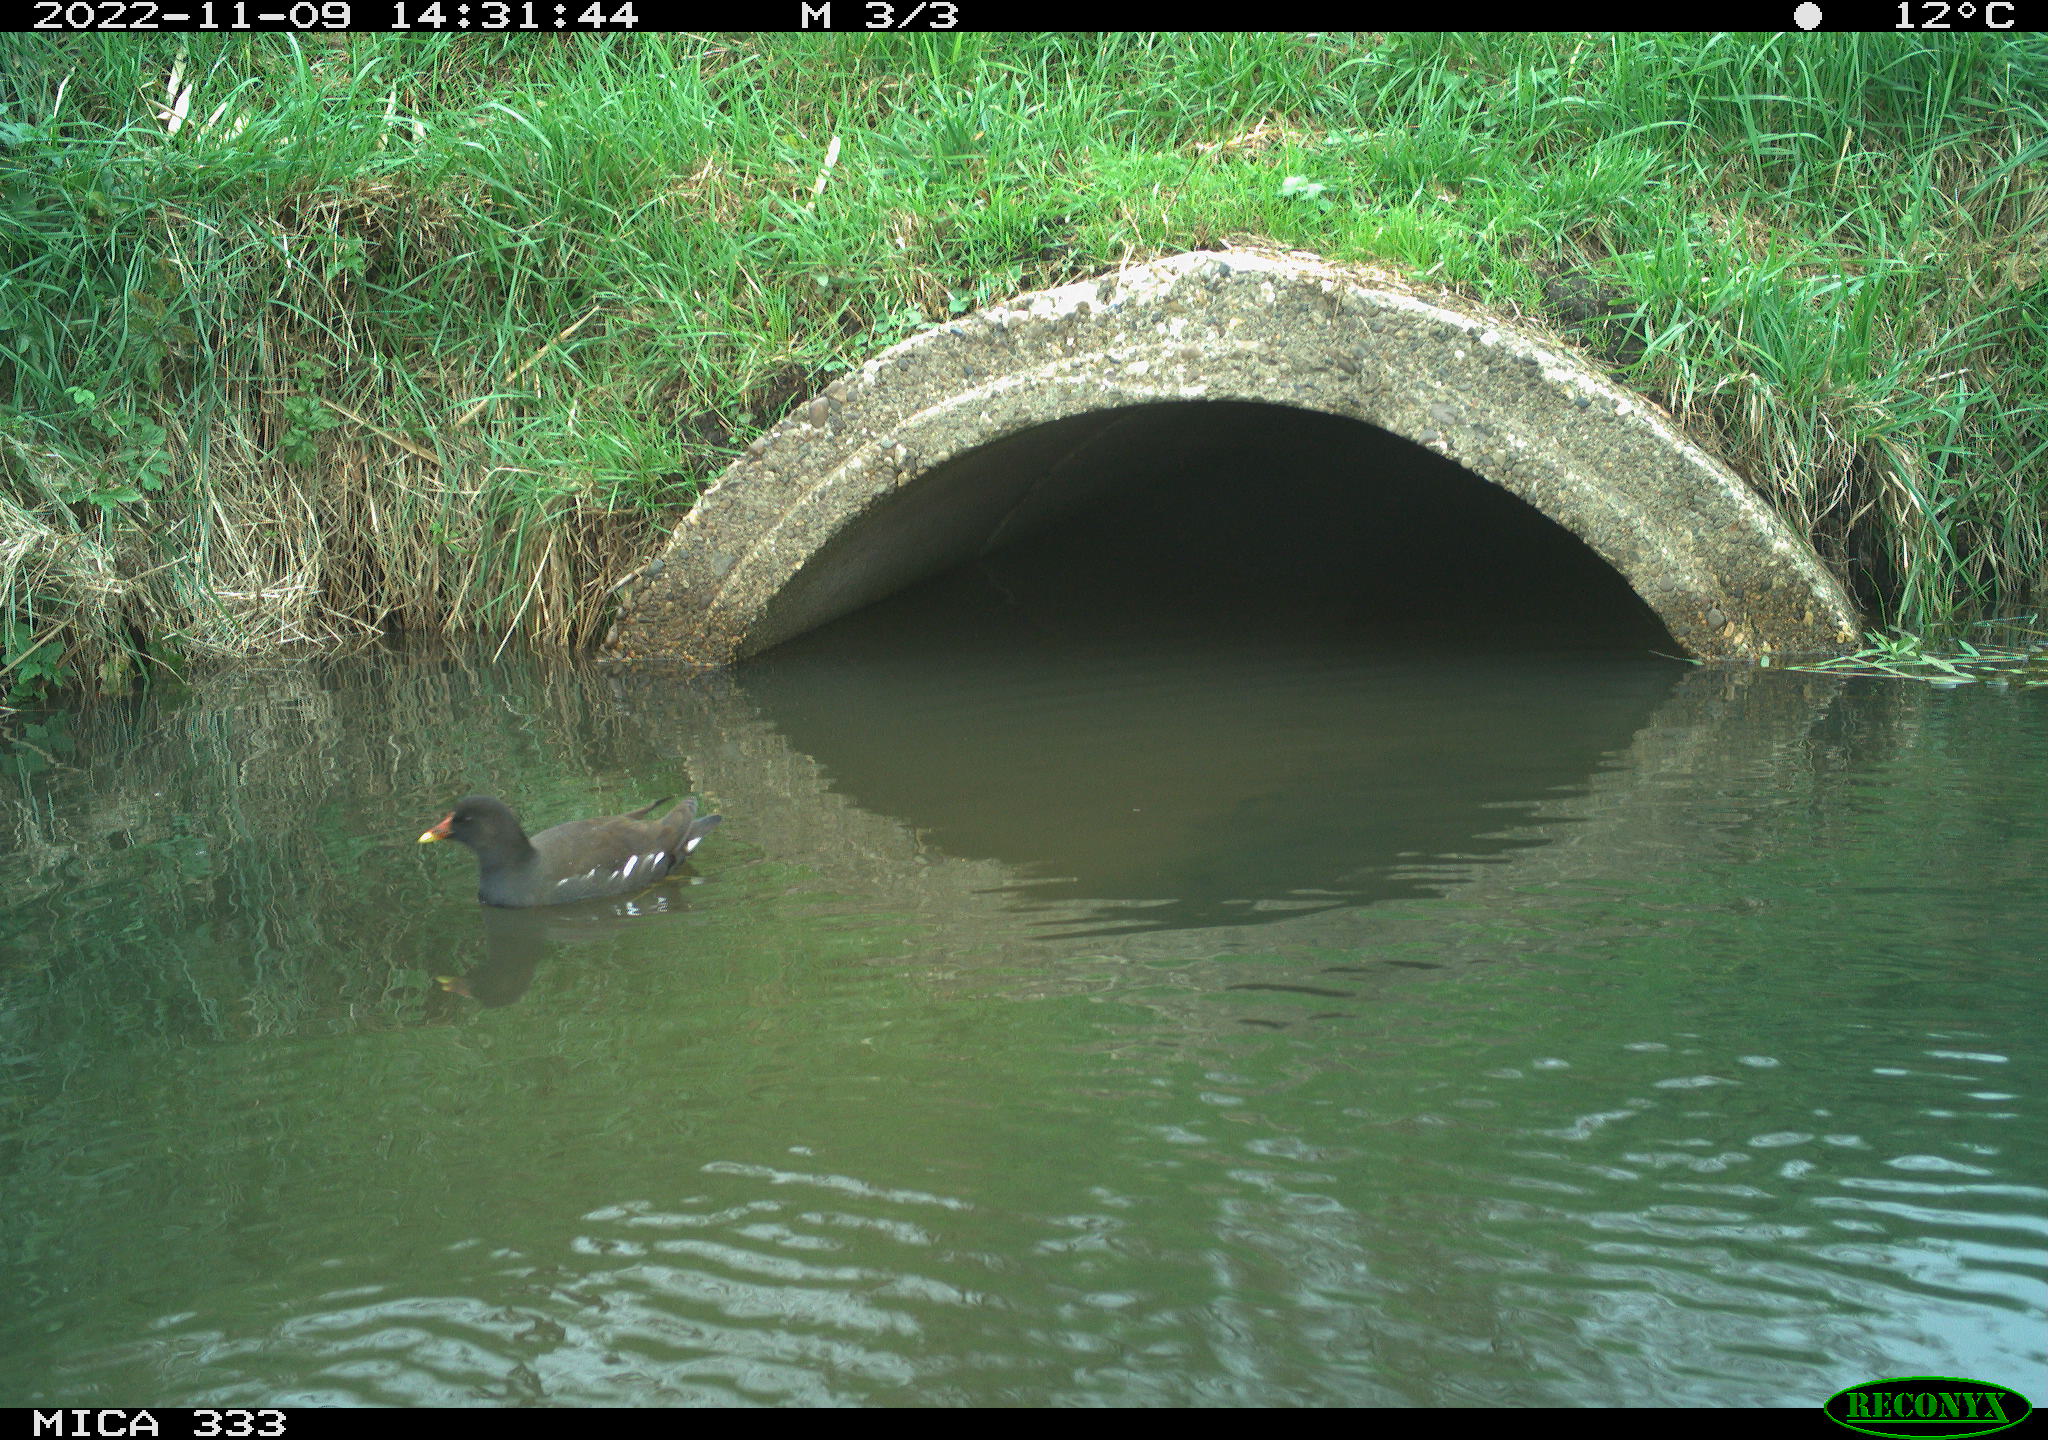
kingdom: Animalia
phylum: Chordata
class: Aves
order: Gruiformes
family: Rallidae
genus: Gallinula
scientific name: Gallinula chloropus
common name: Common moorhen
